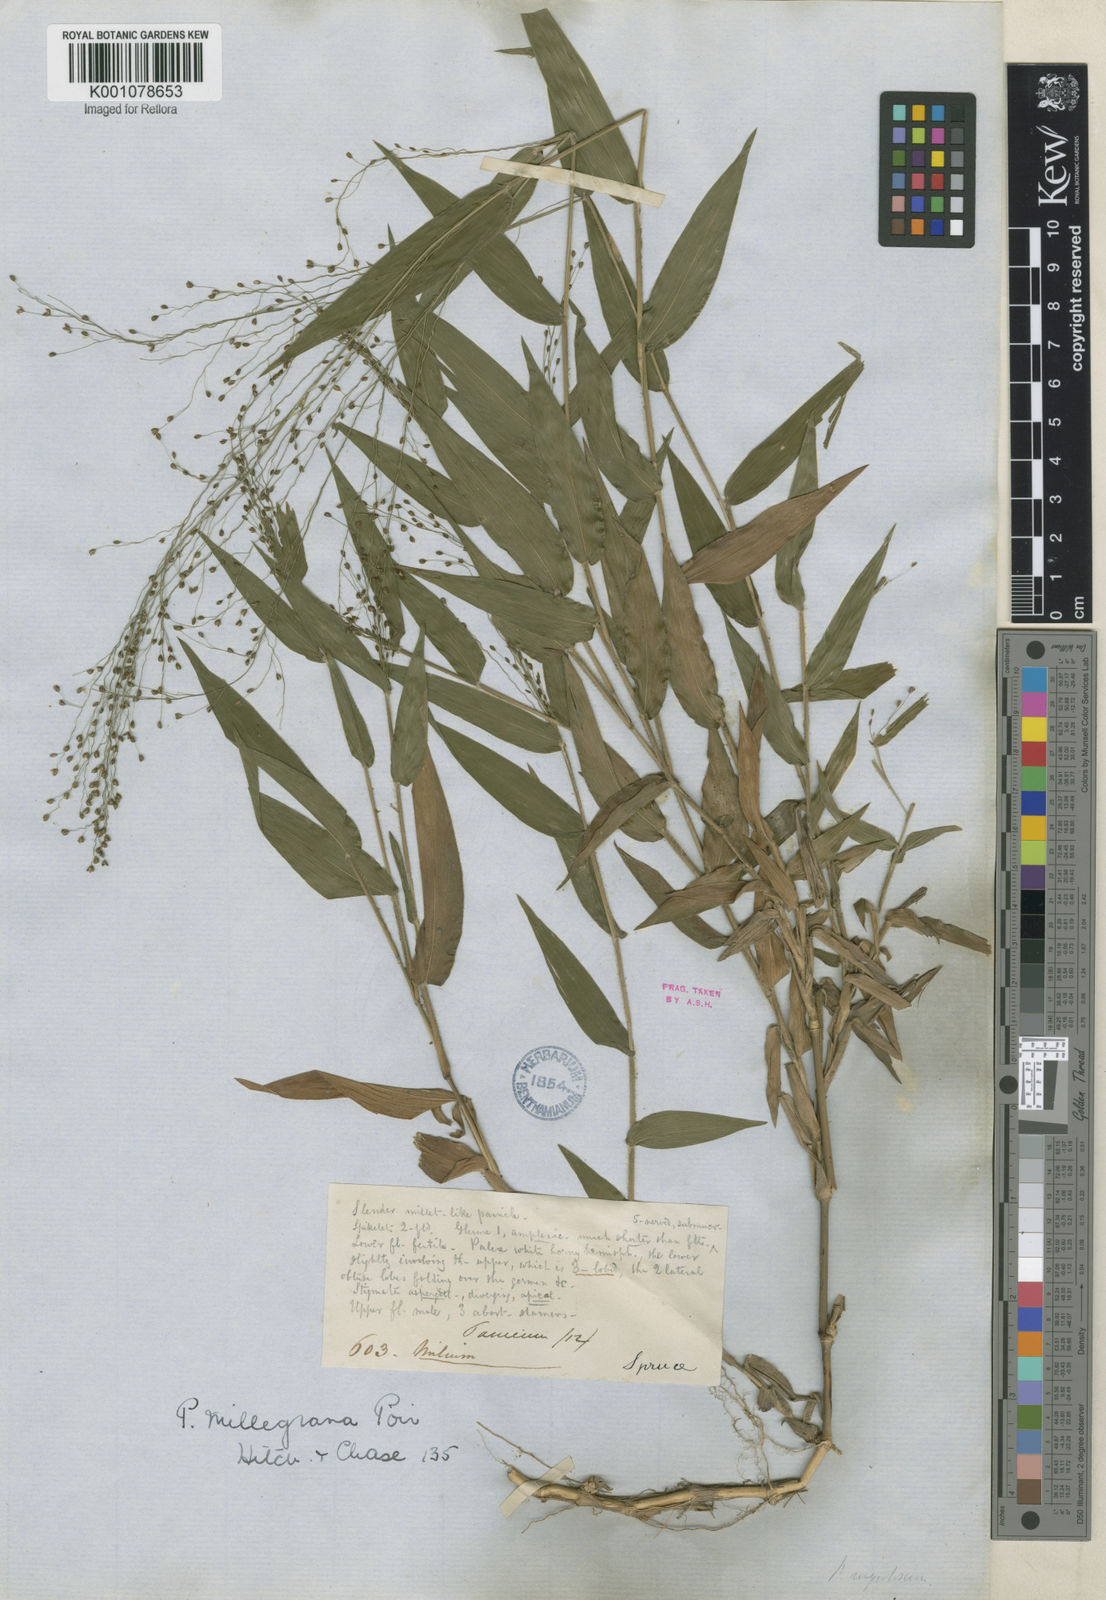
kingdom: Plantae
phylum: Tracheophyta
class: Liliopsida
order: Poales
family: Poaceae
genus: Panicum
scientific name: Panicum millegrana
